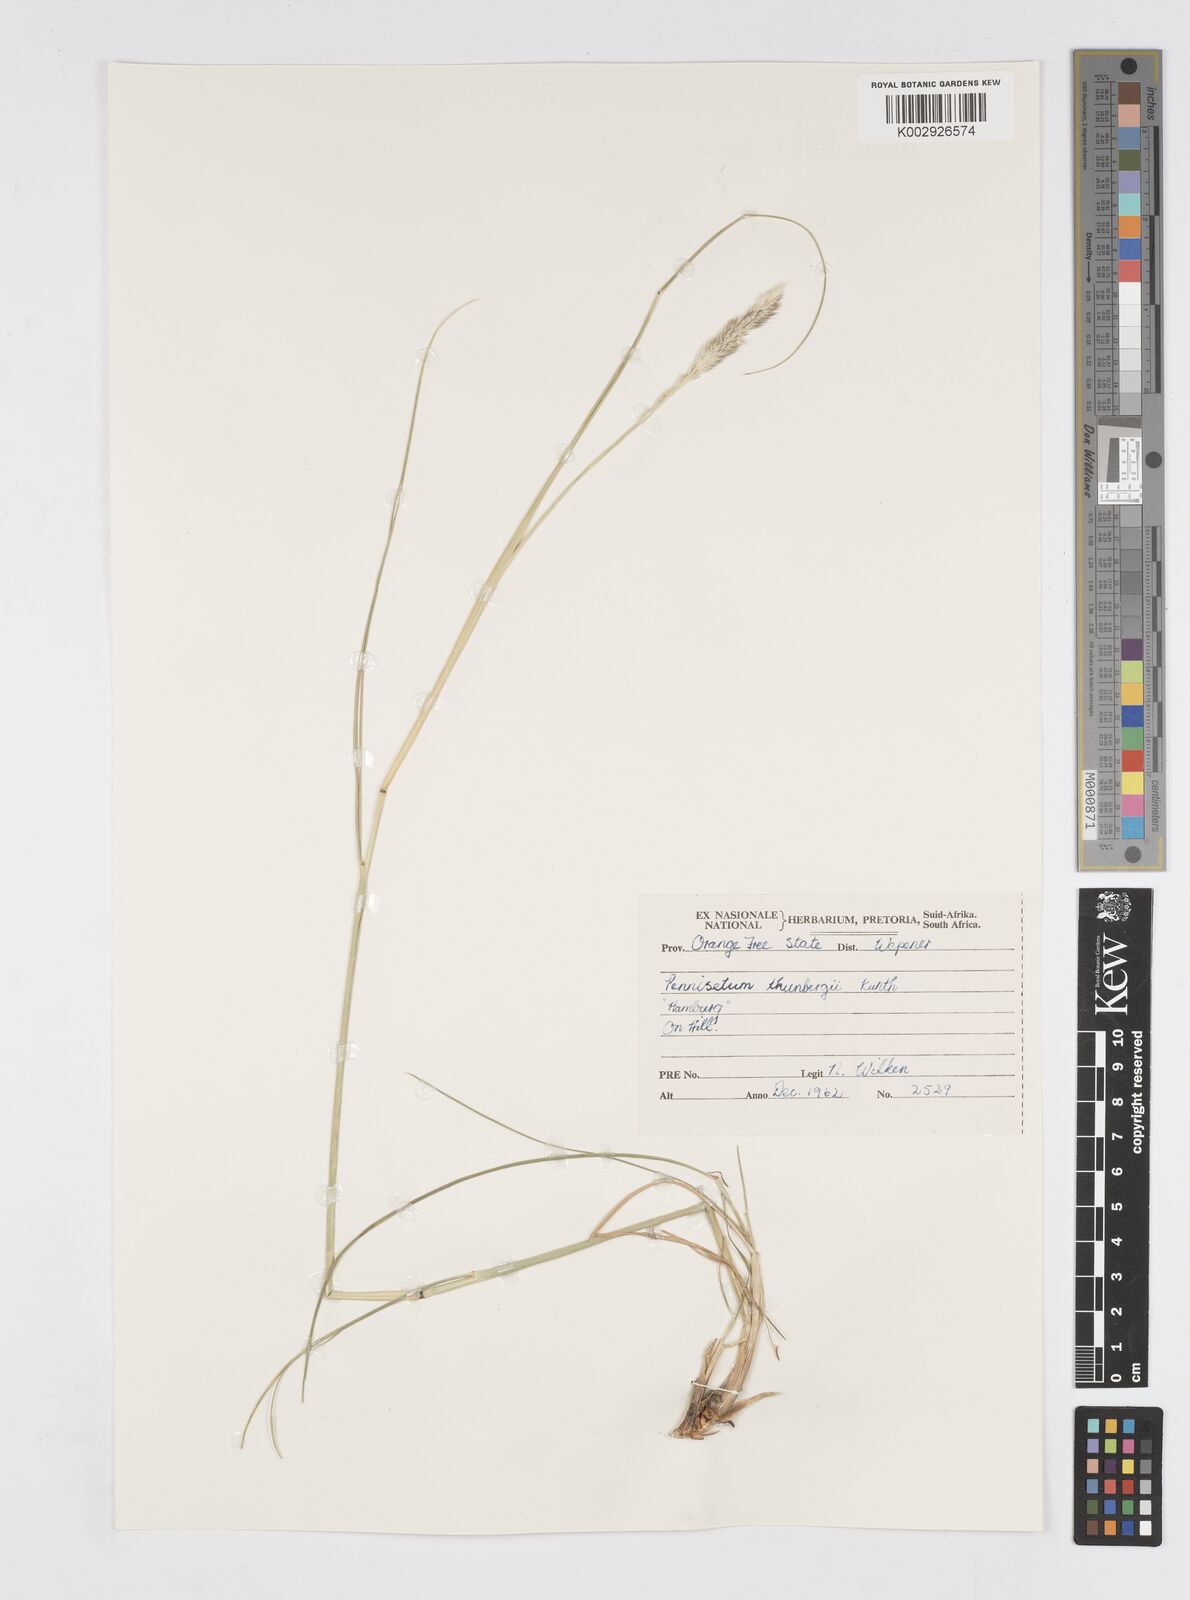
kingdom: Plantae
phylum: Tracheophyta
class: Liliopsida
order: Poales
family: Poaceae
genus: Cenchrus
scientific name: Cenchrus geniculatus
